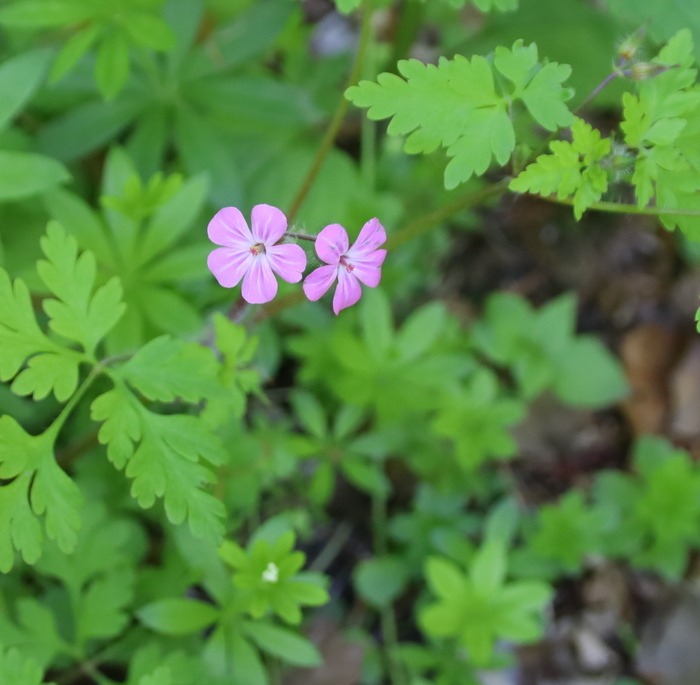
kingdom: Plantae
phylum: Tracheophyta
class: Magnoliopsida
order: Geraniales
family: Geraniaceae
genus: Geranium
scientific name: Geranium robertianum
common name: Stinkende storkenæb
